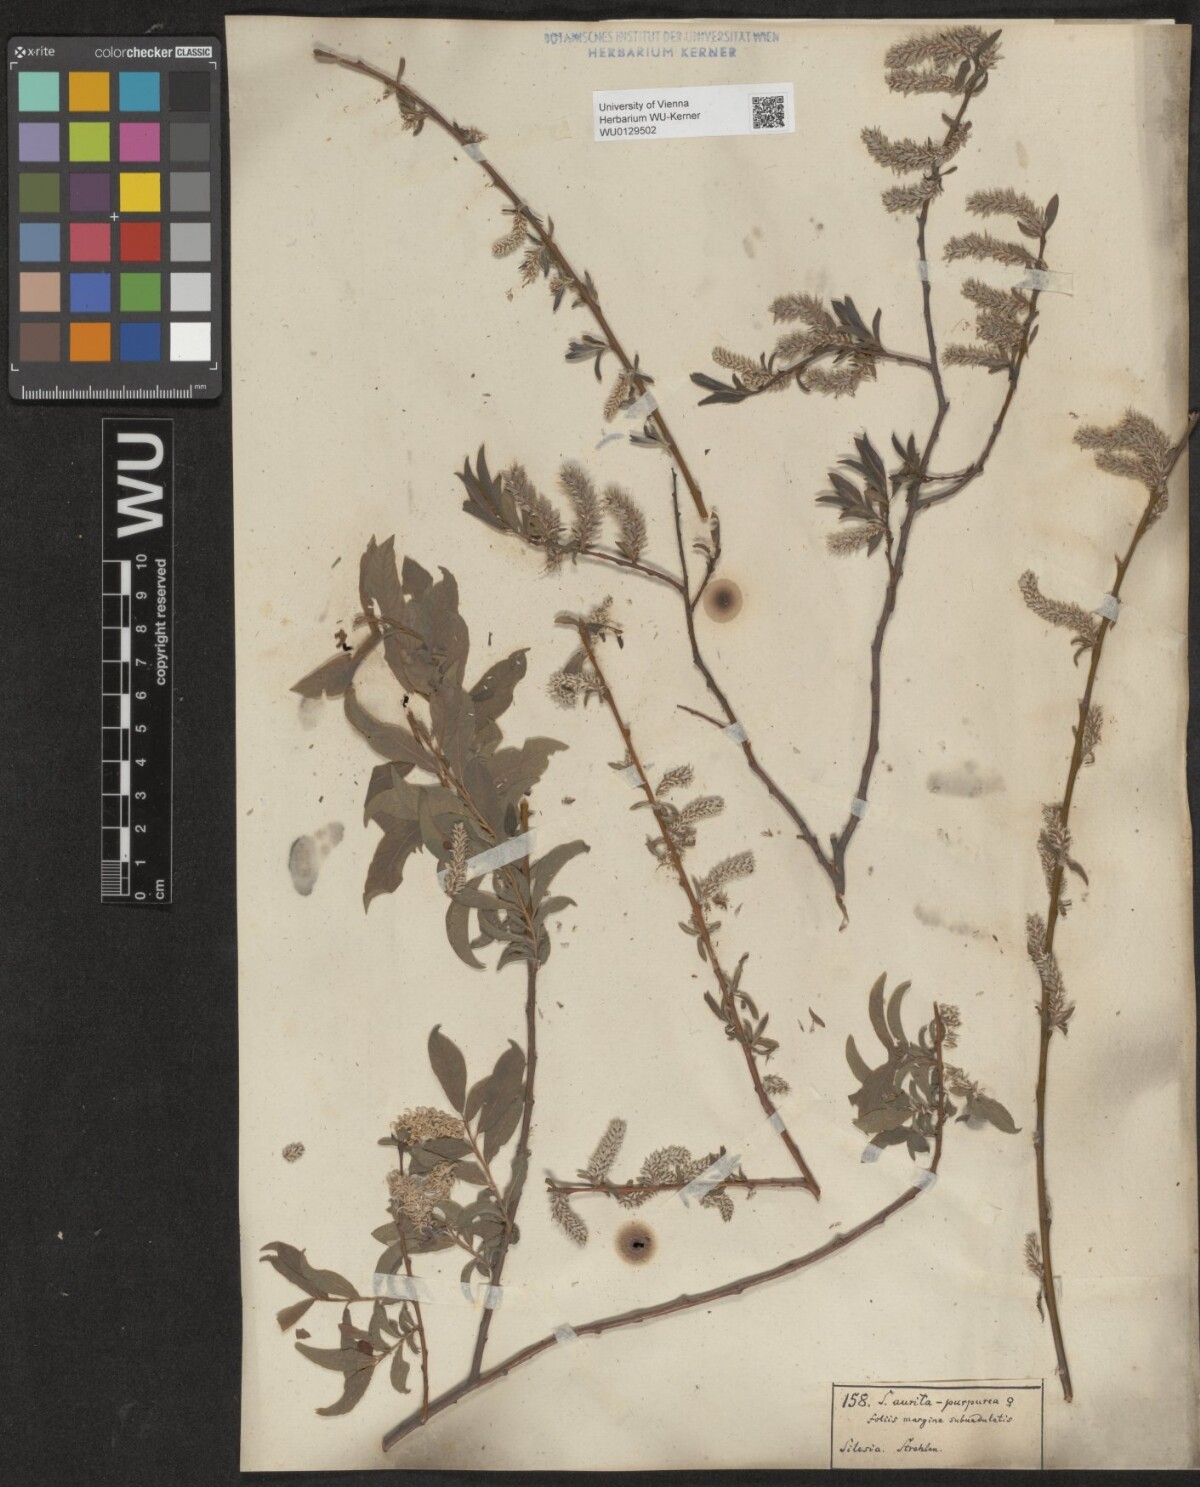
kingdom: Plantae
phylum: Tracheophyta
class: Magnoliopsida
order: Malpighiales
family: Salicaceae
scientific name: Salicaceae
